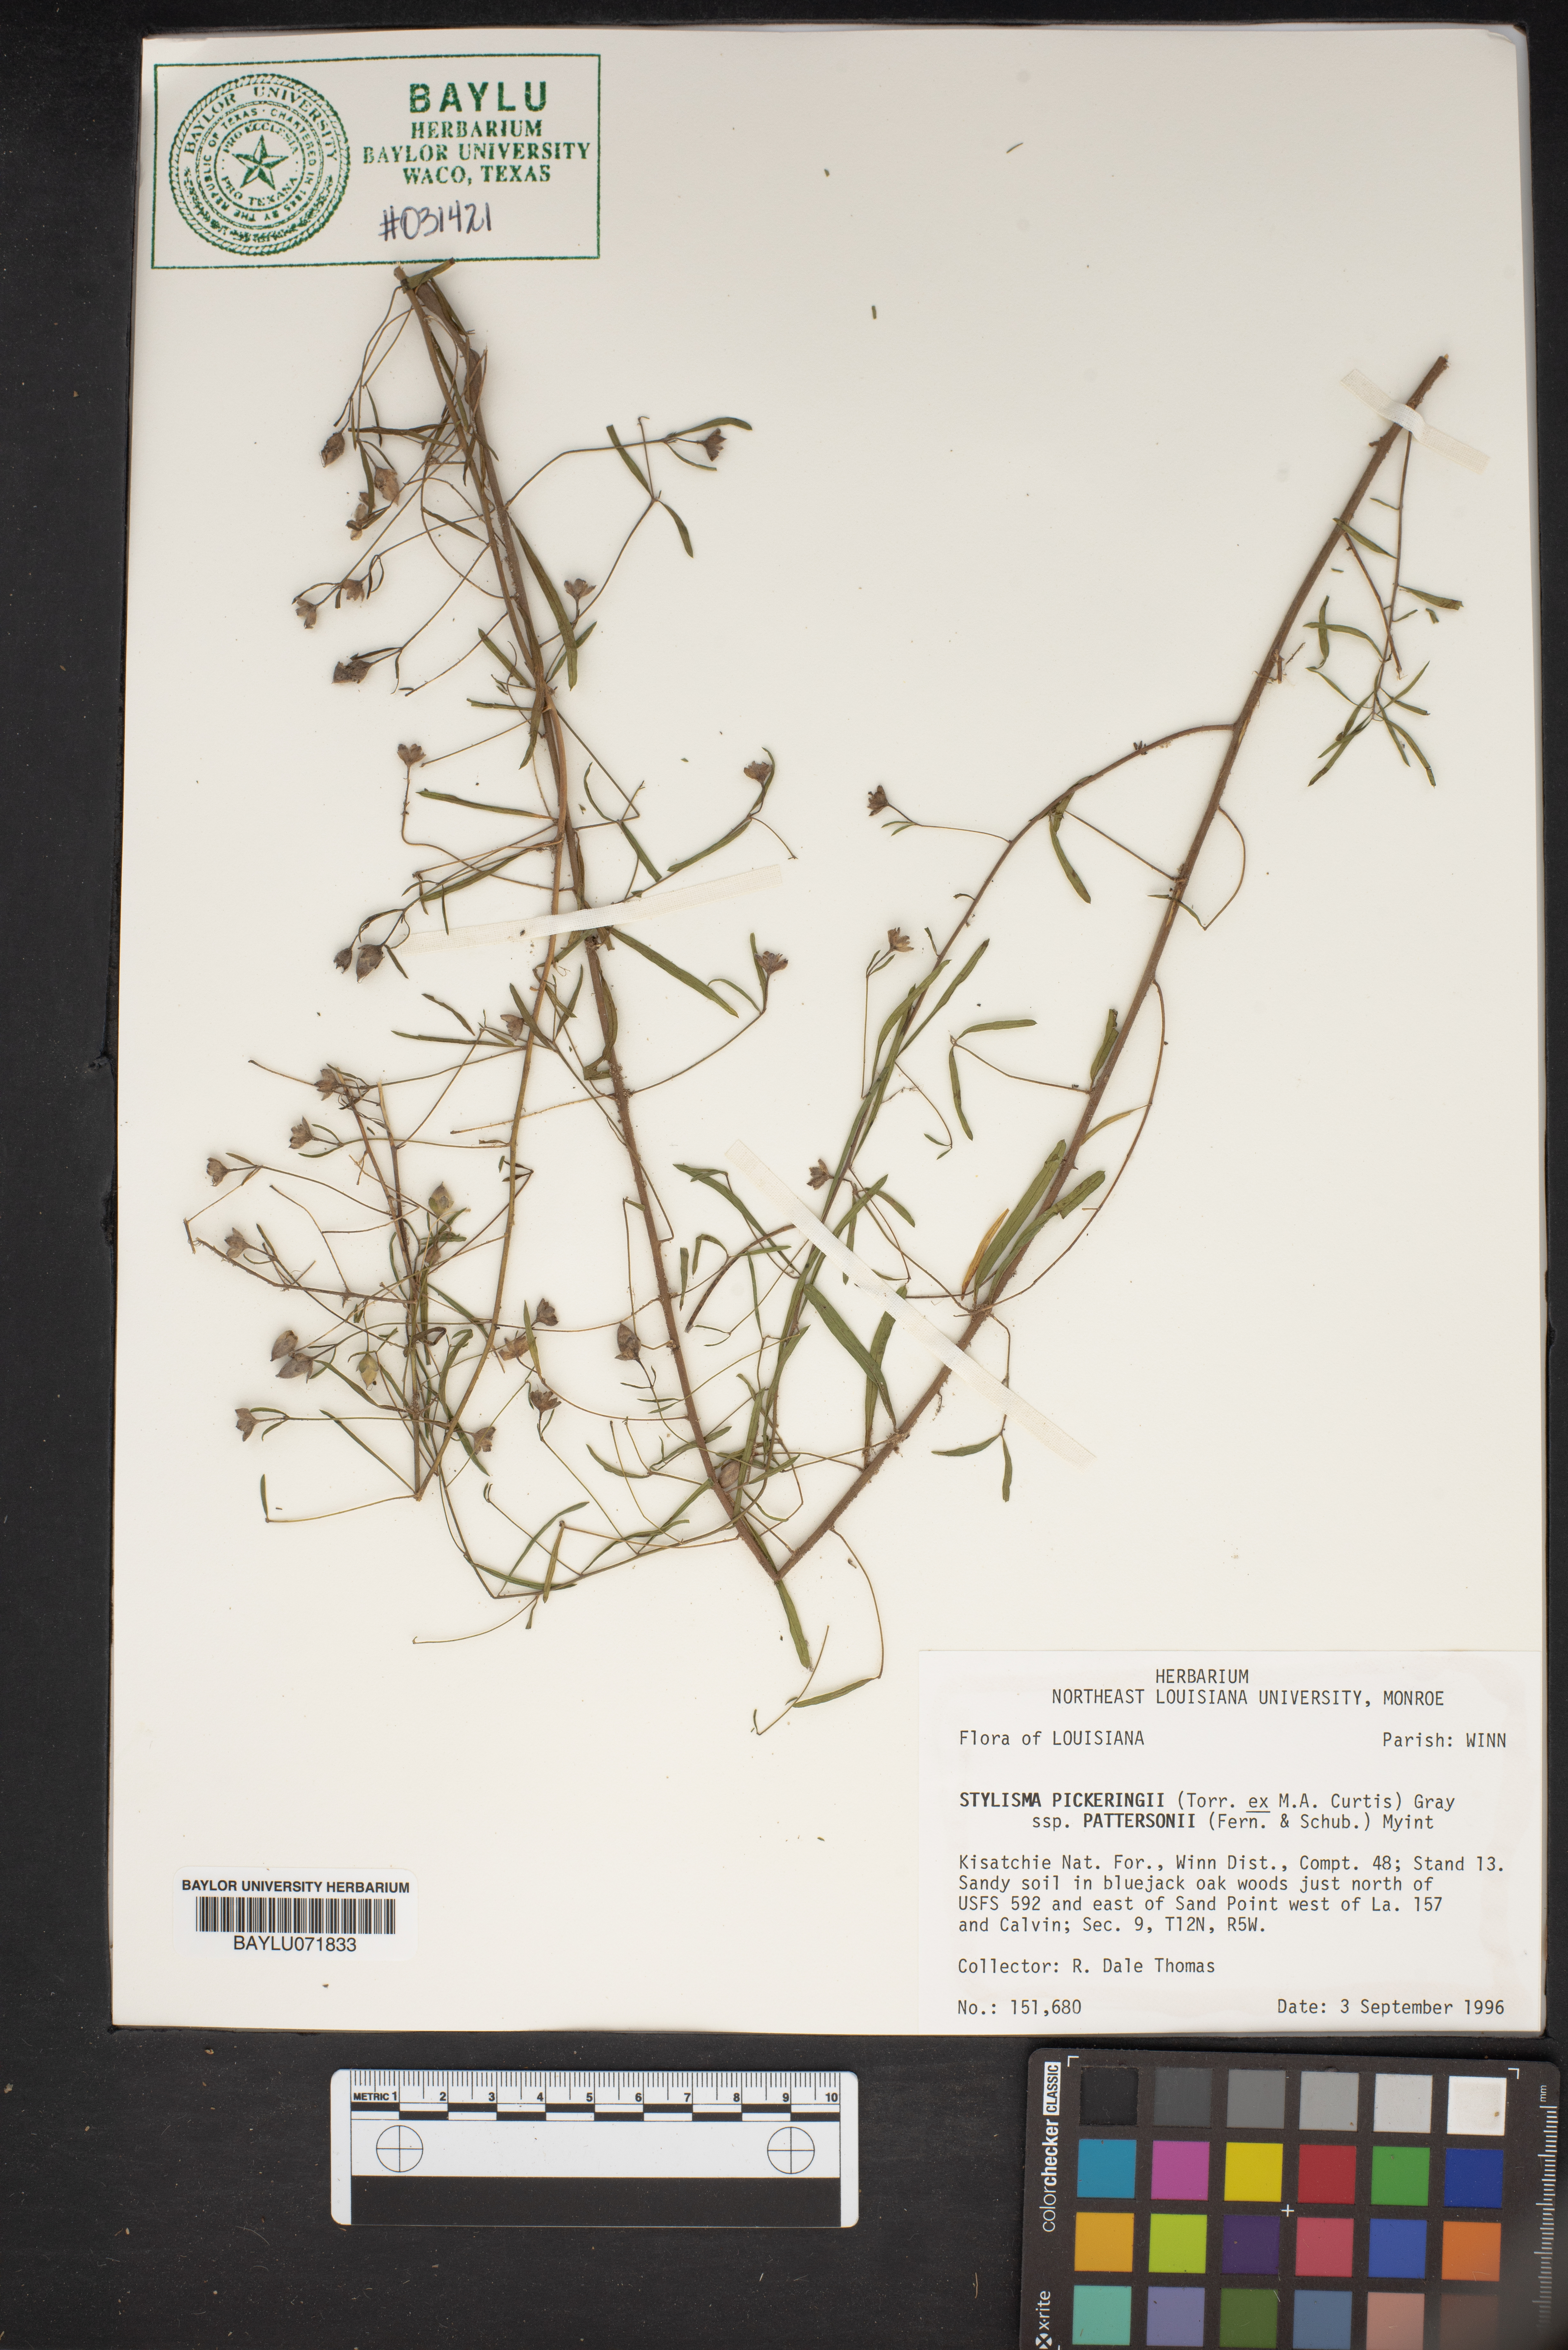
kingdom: Plantae
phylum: Tracheophyta
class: Magnoliopsida
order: Solanales
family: Convolvulaceae
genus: Stylisma
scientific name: Stylisma pickeringii
